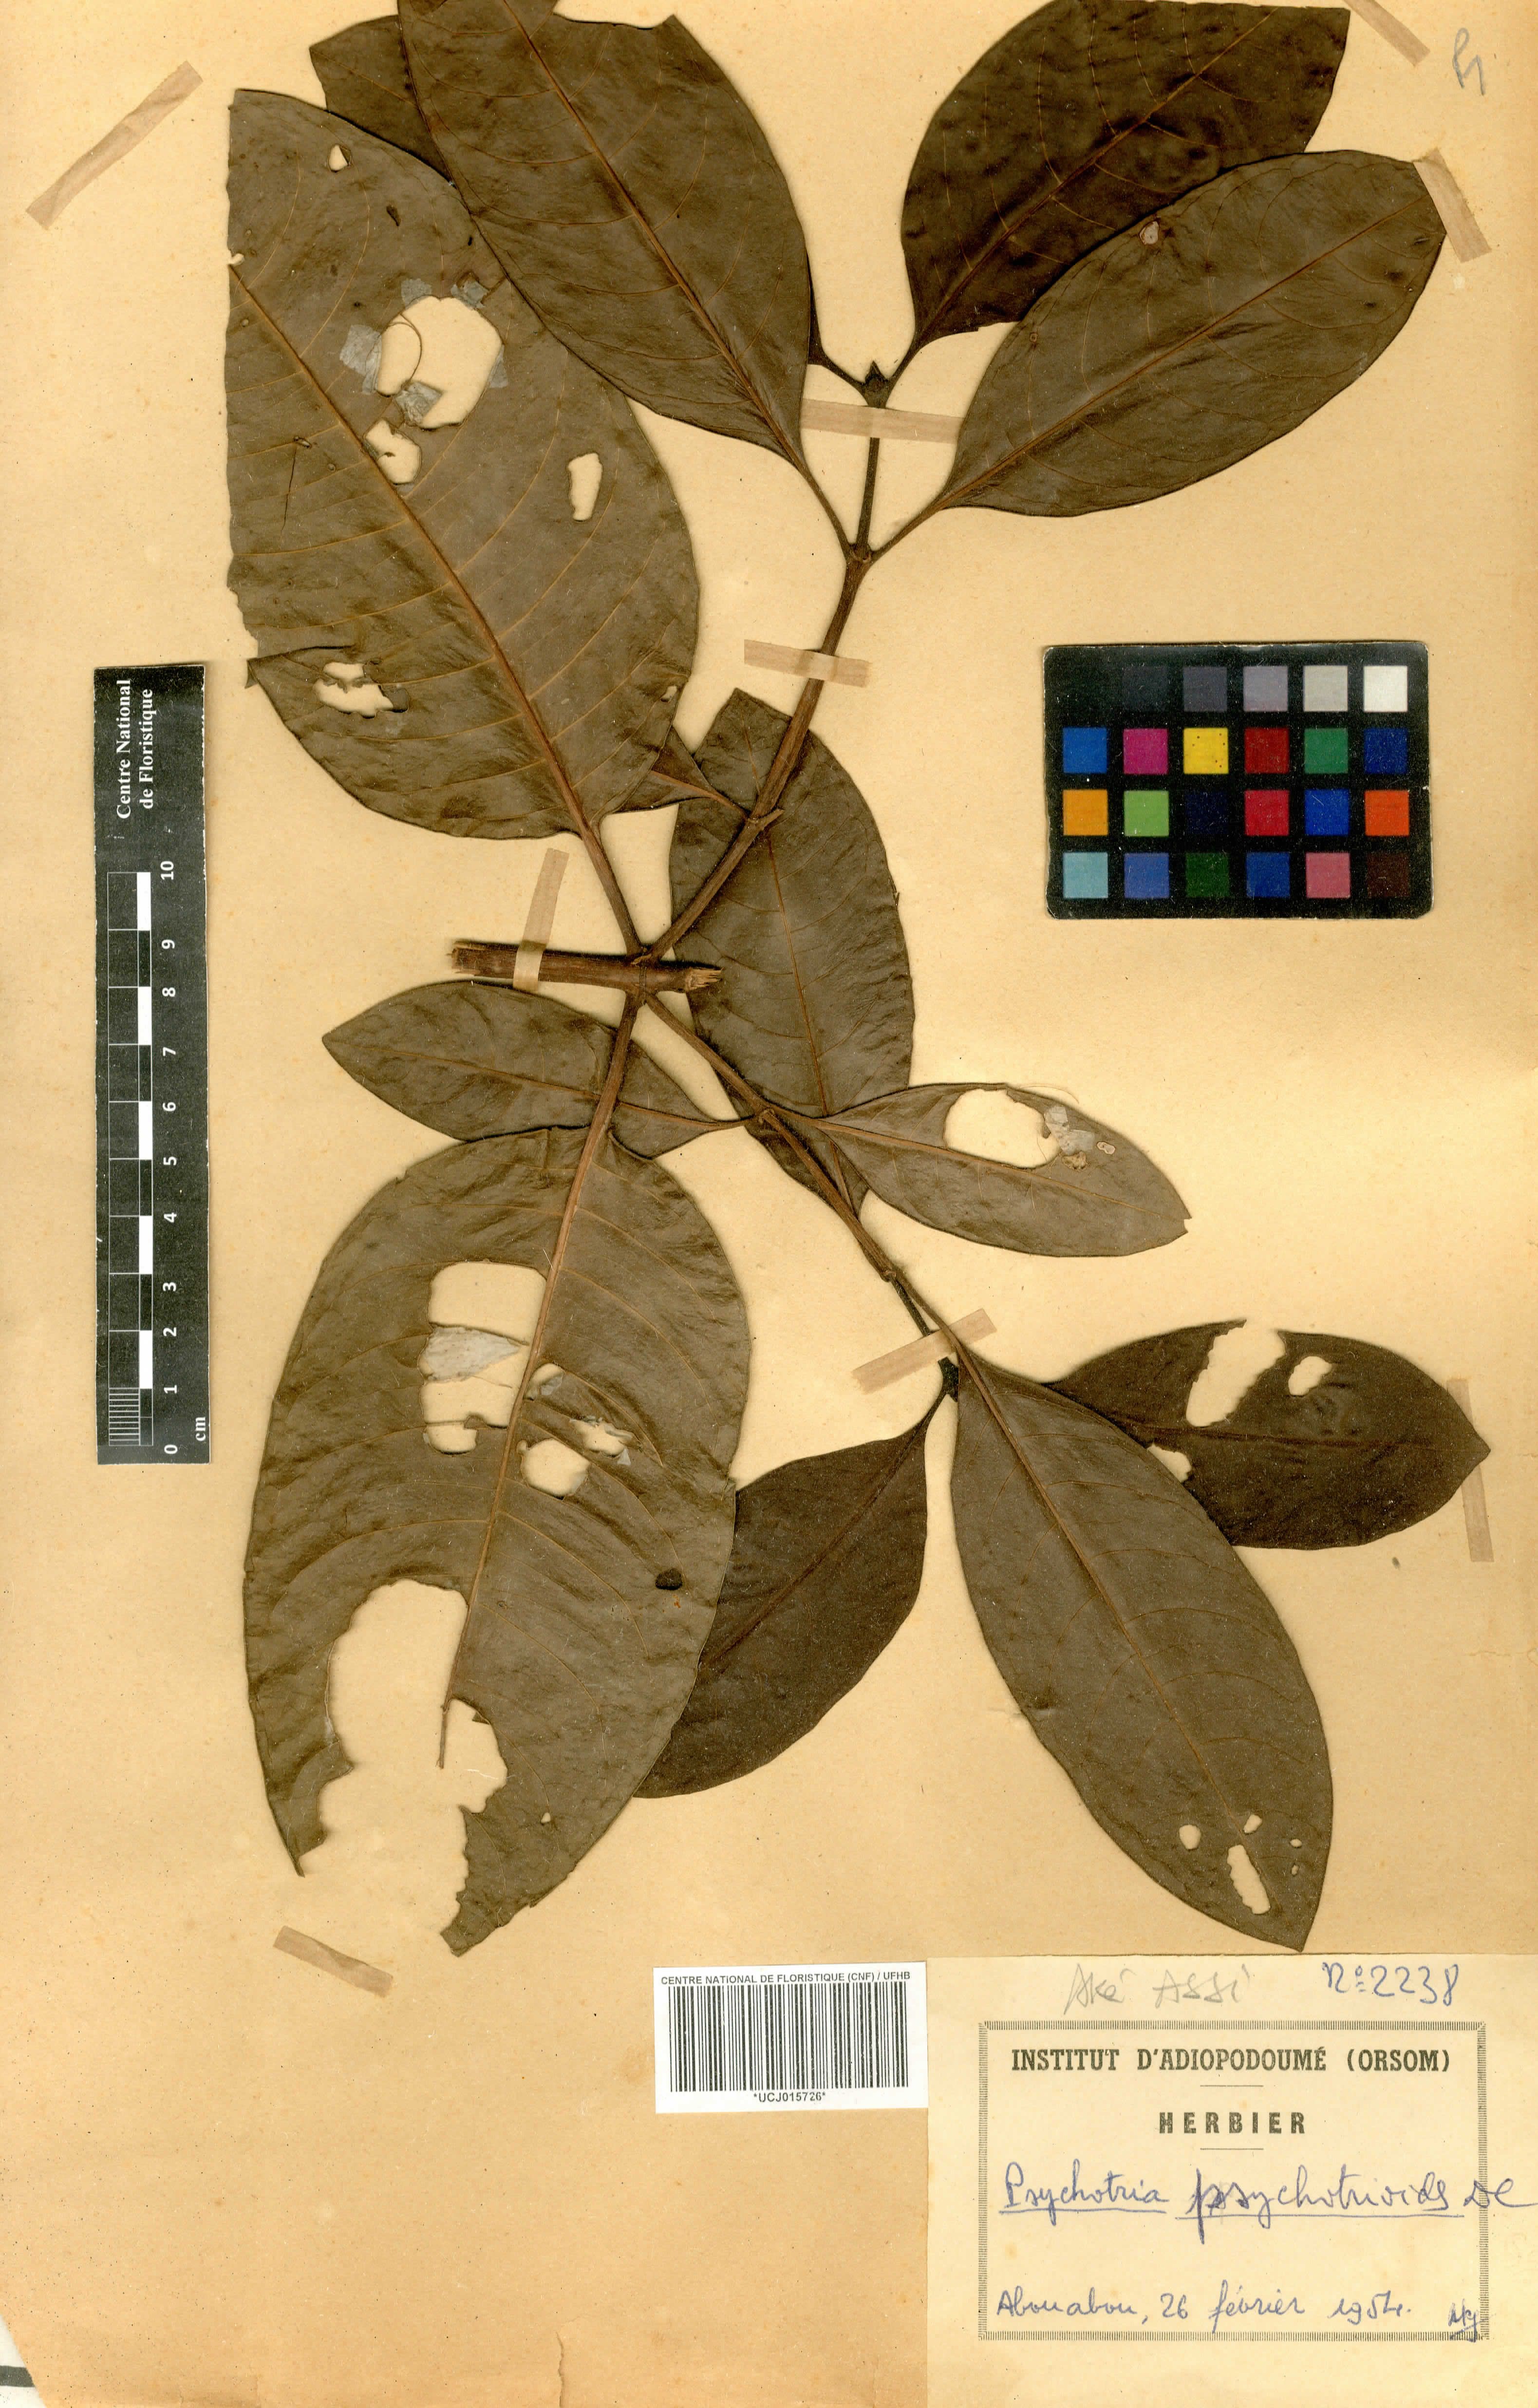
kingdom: Plantae
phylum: Tracheophyta
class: Magnoliopsida
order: Gentianales
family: Rubiaceae
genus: Psychotria
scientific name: Psychotria psychotrioides
